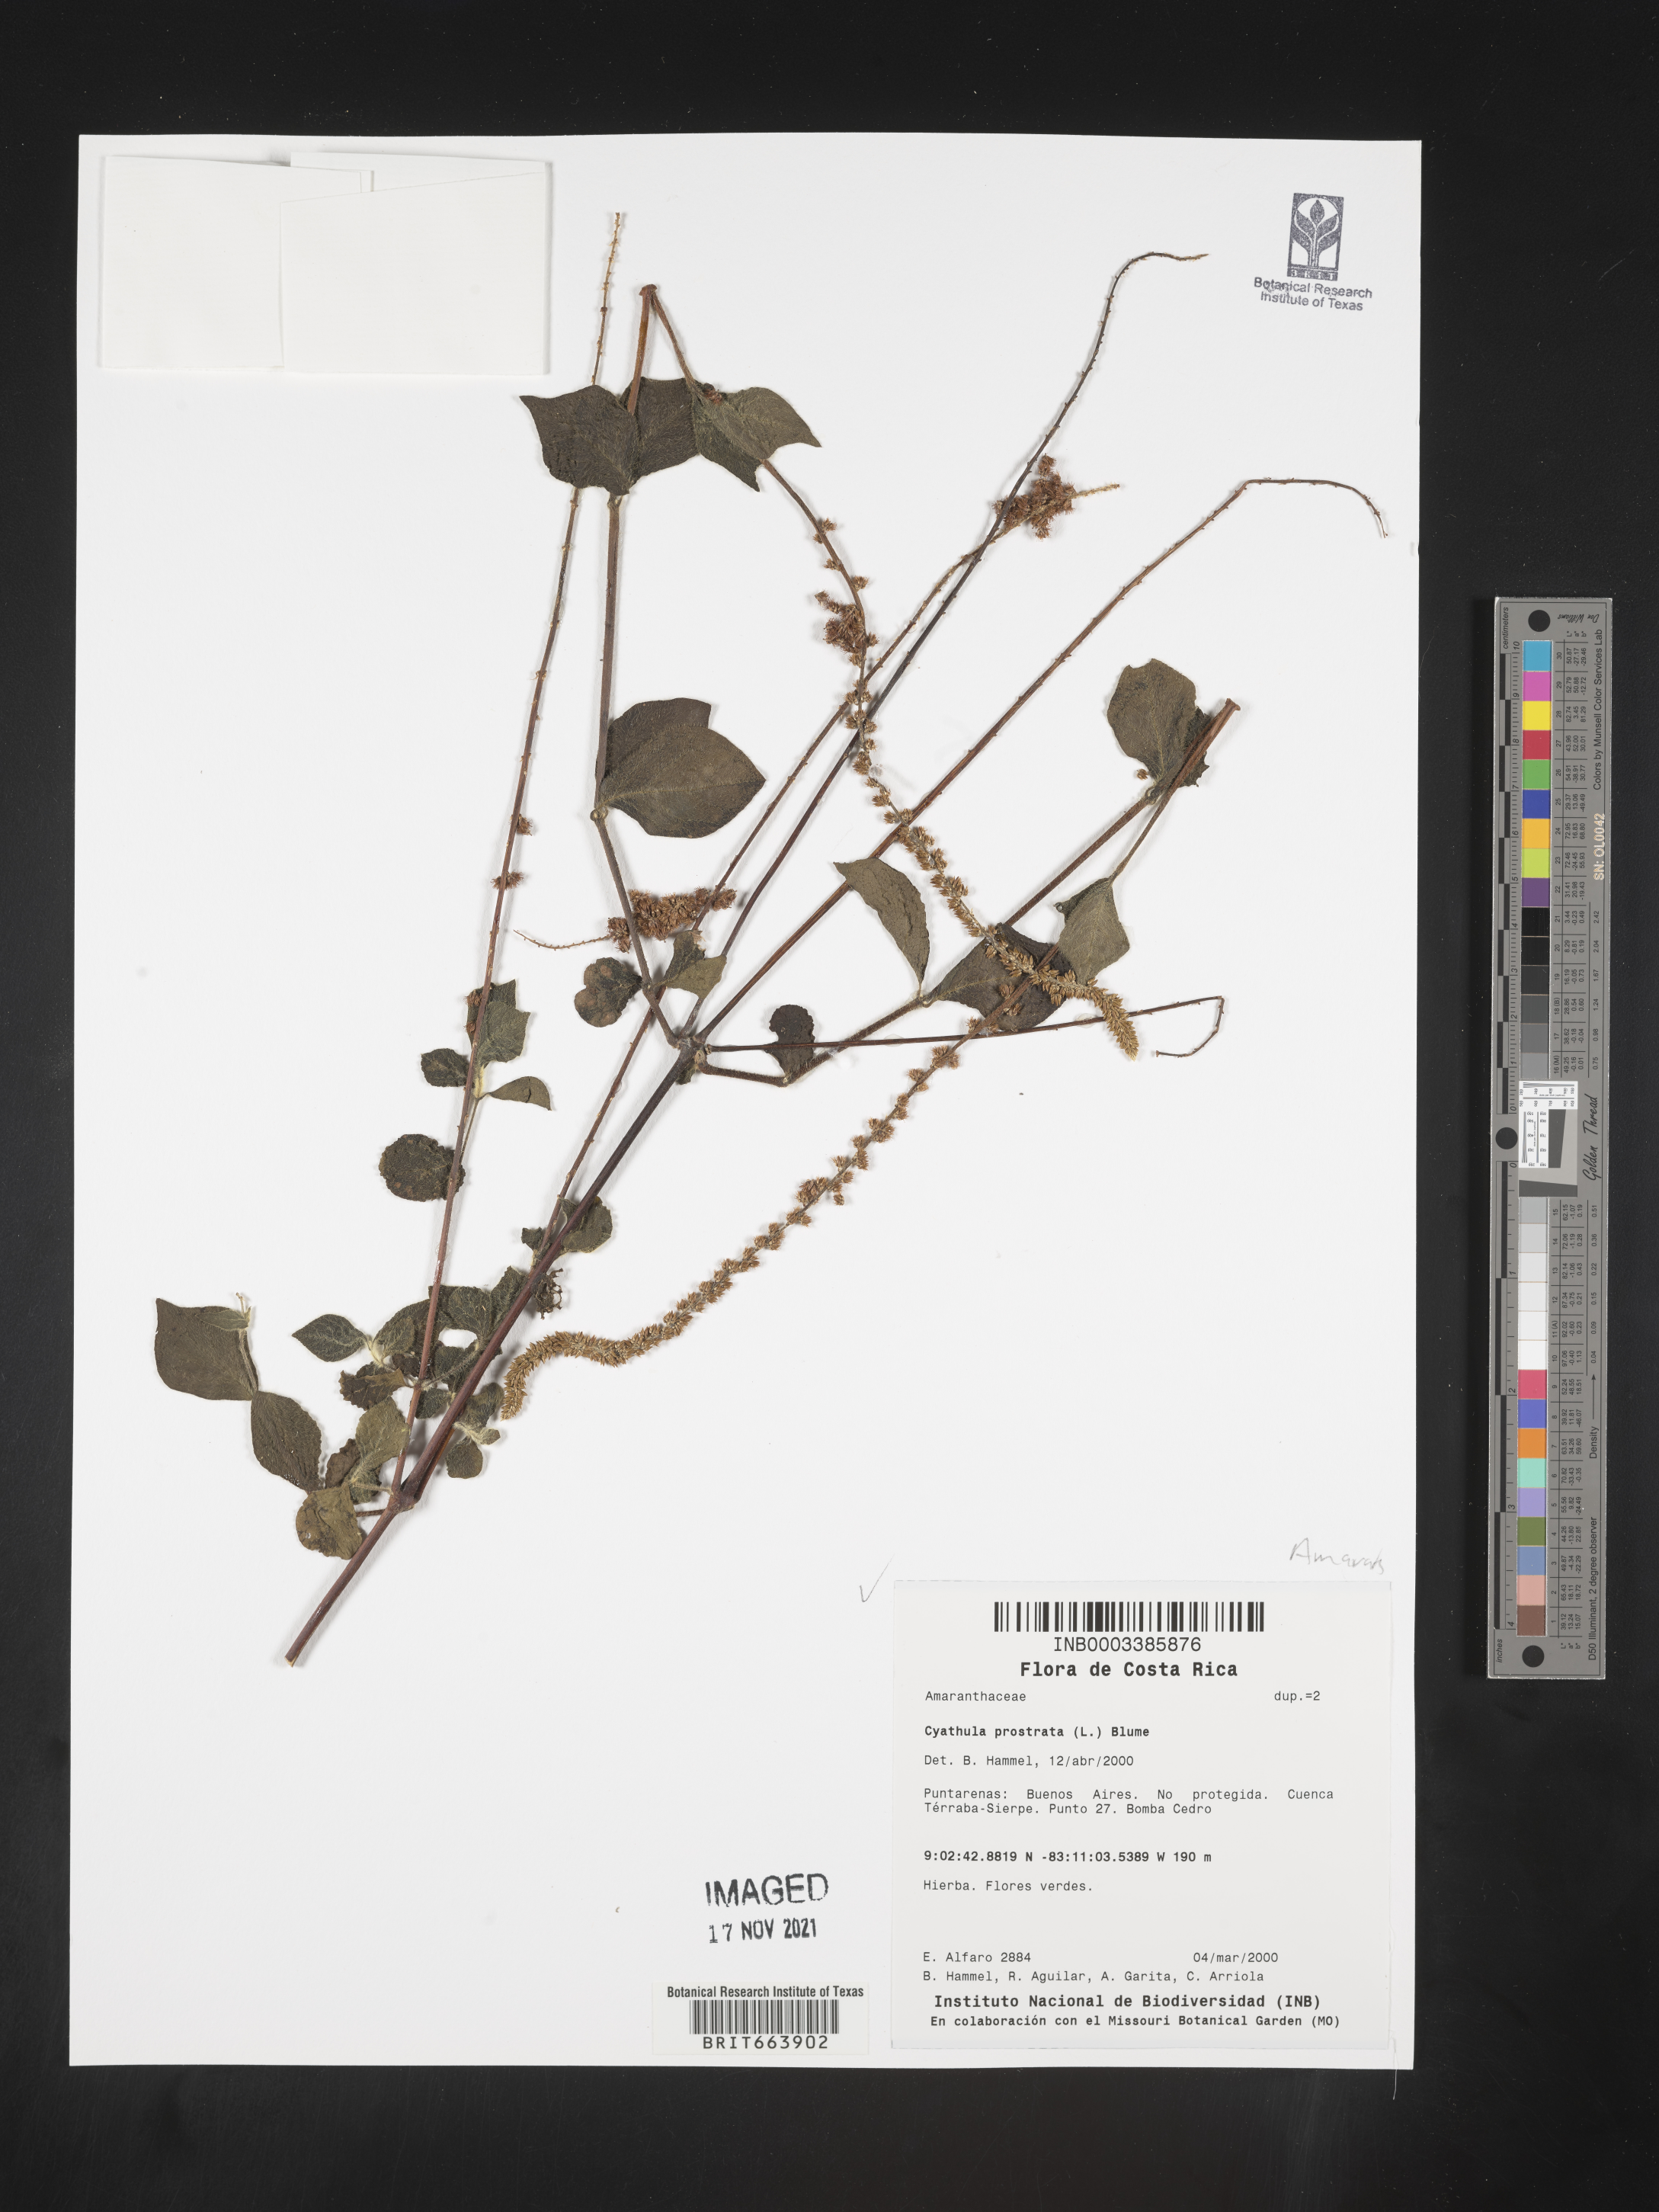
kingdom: Plantae
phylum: Tracheophyta
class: Magnoliopsida
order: Caryophyllales
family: Amaranthaceae
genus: Cyathula
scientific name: Cyathula
